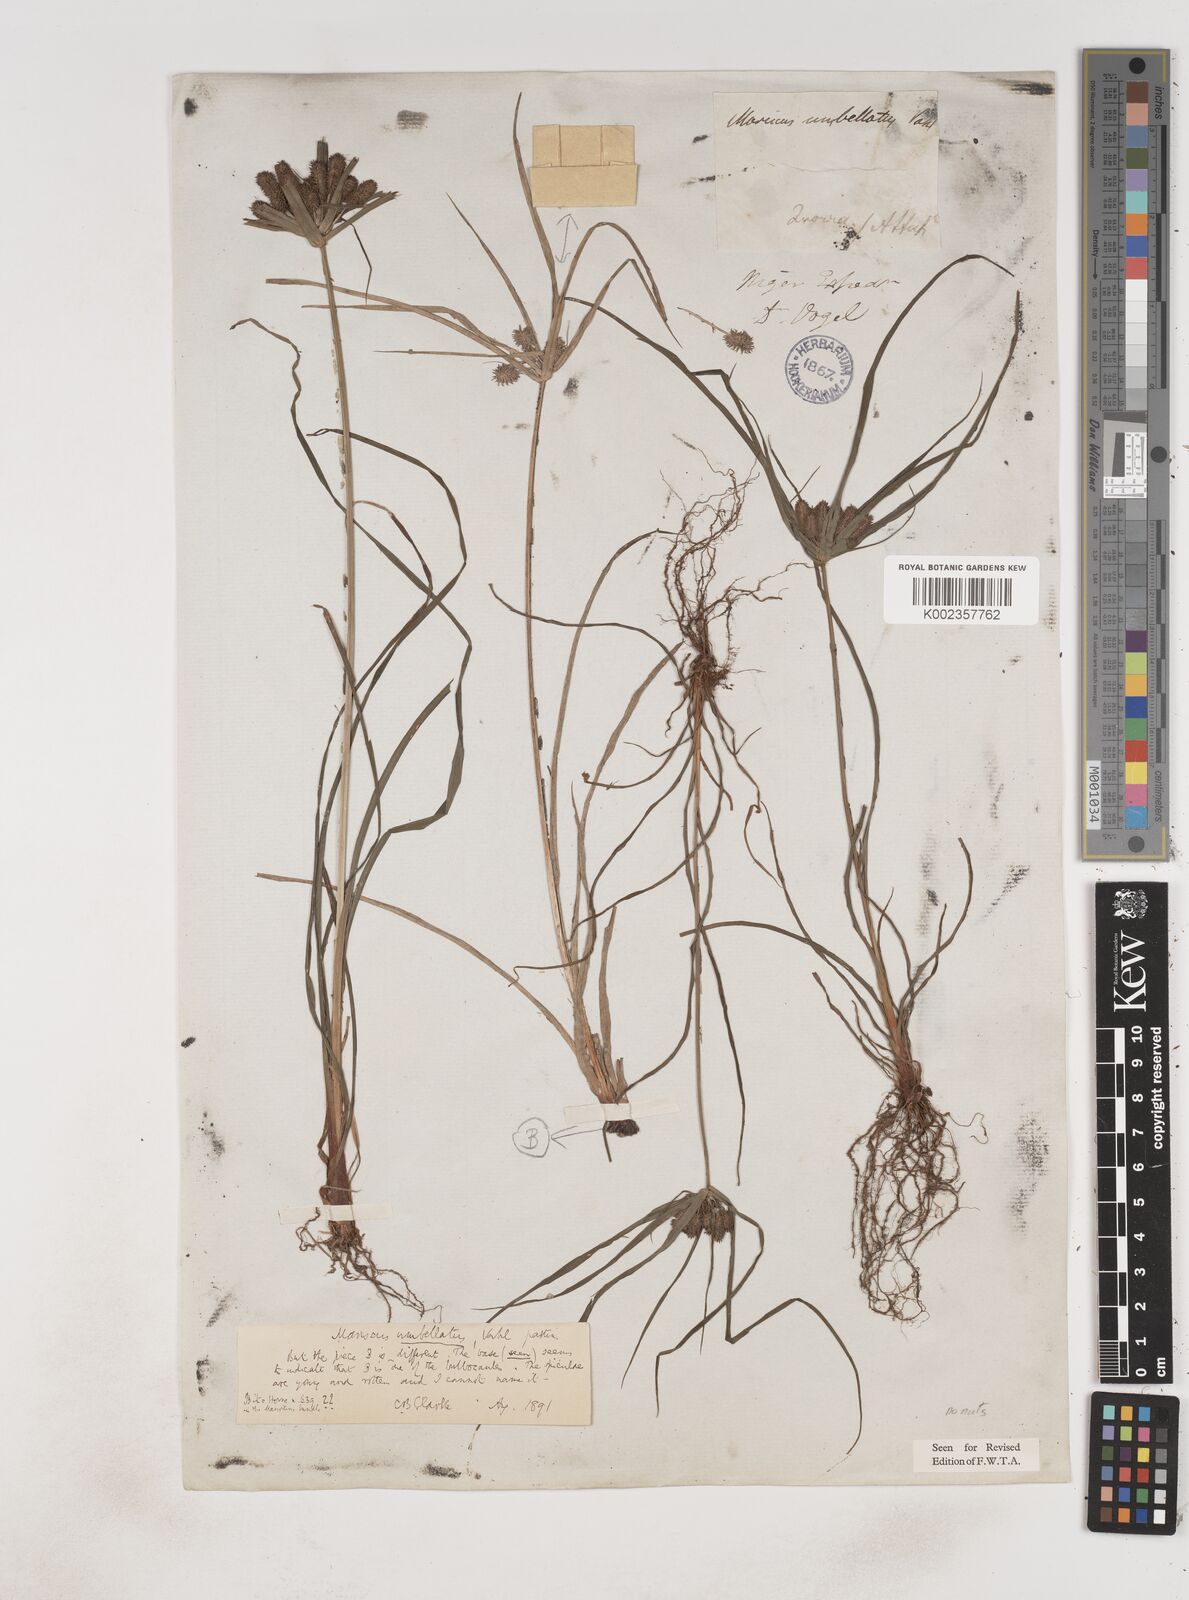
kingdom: Plantae
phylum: Tracheophyta
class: Liliopsida
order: Poales
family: Cyperaceae
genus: Cyperus
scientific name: Cyperus sublimis
